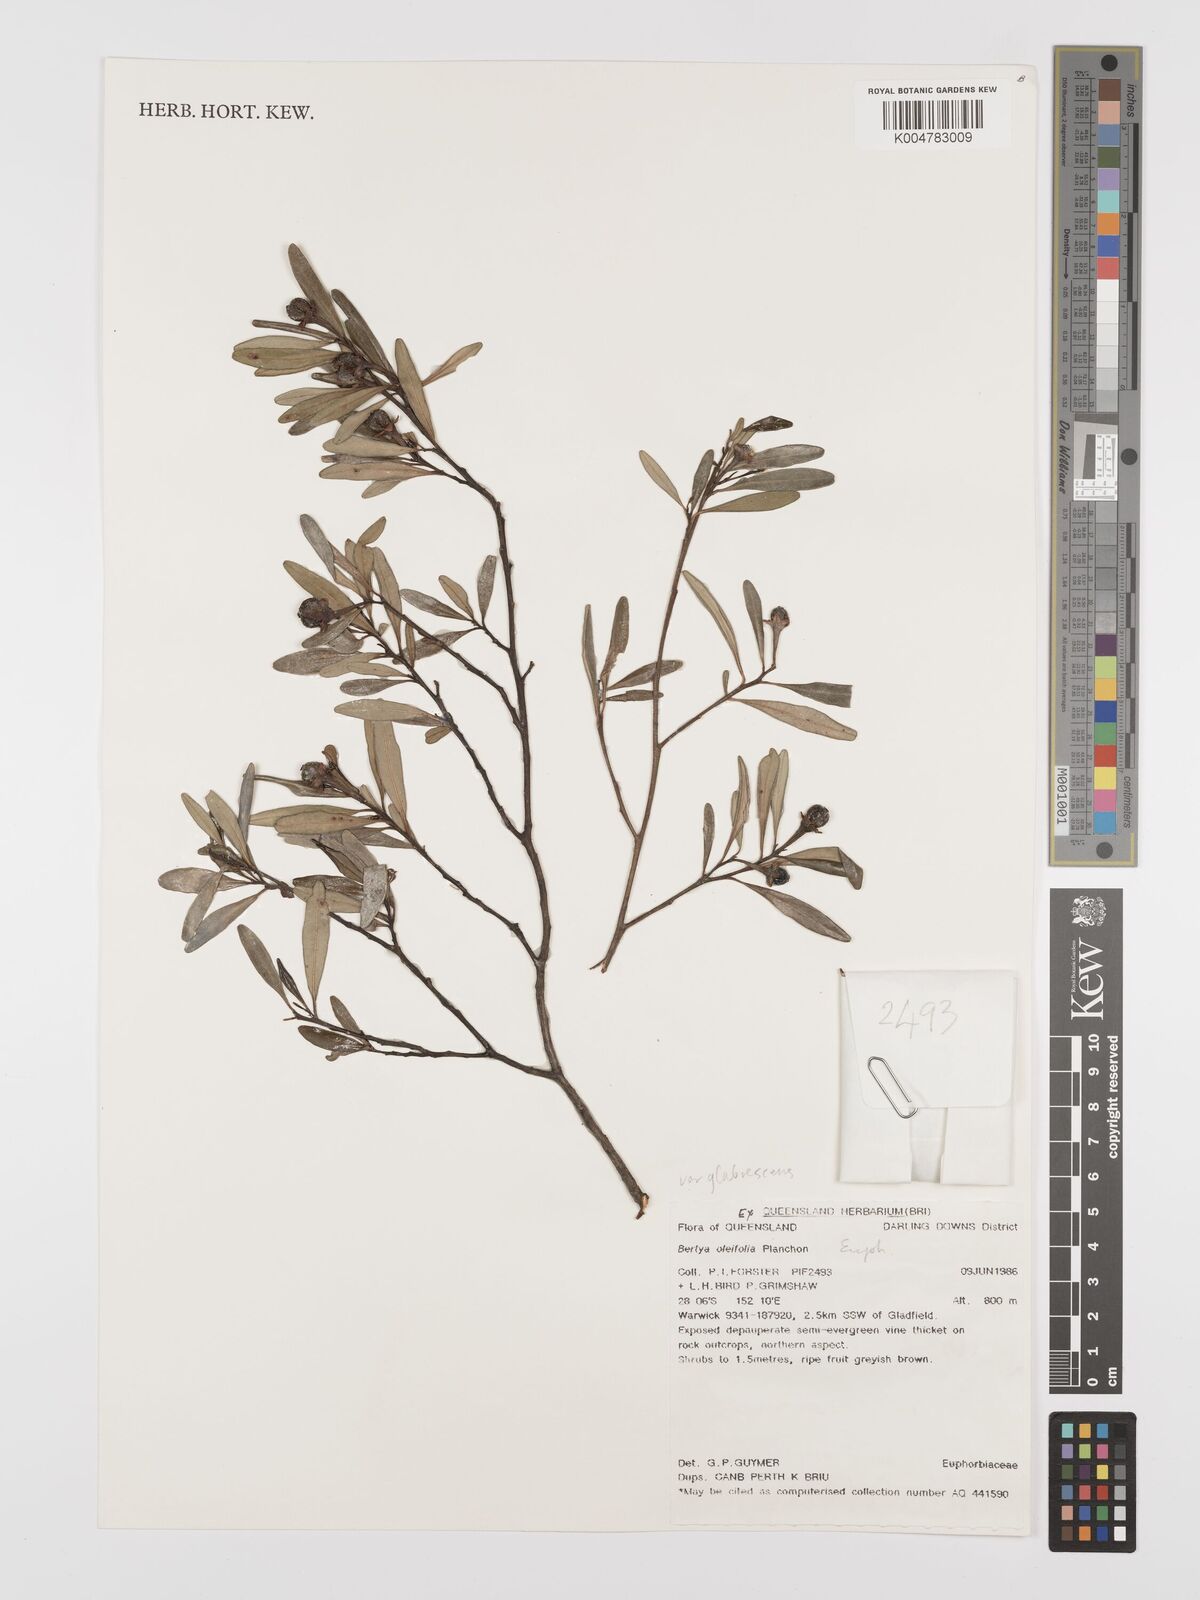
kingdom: Plantae
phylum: Tracheophyta
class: Magnoliopsida
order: Malpighiales
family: Euphorbiaceae
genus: Bertya
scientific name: Bertya pedicellata
